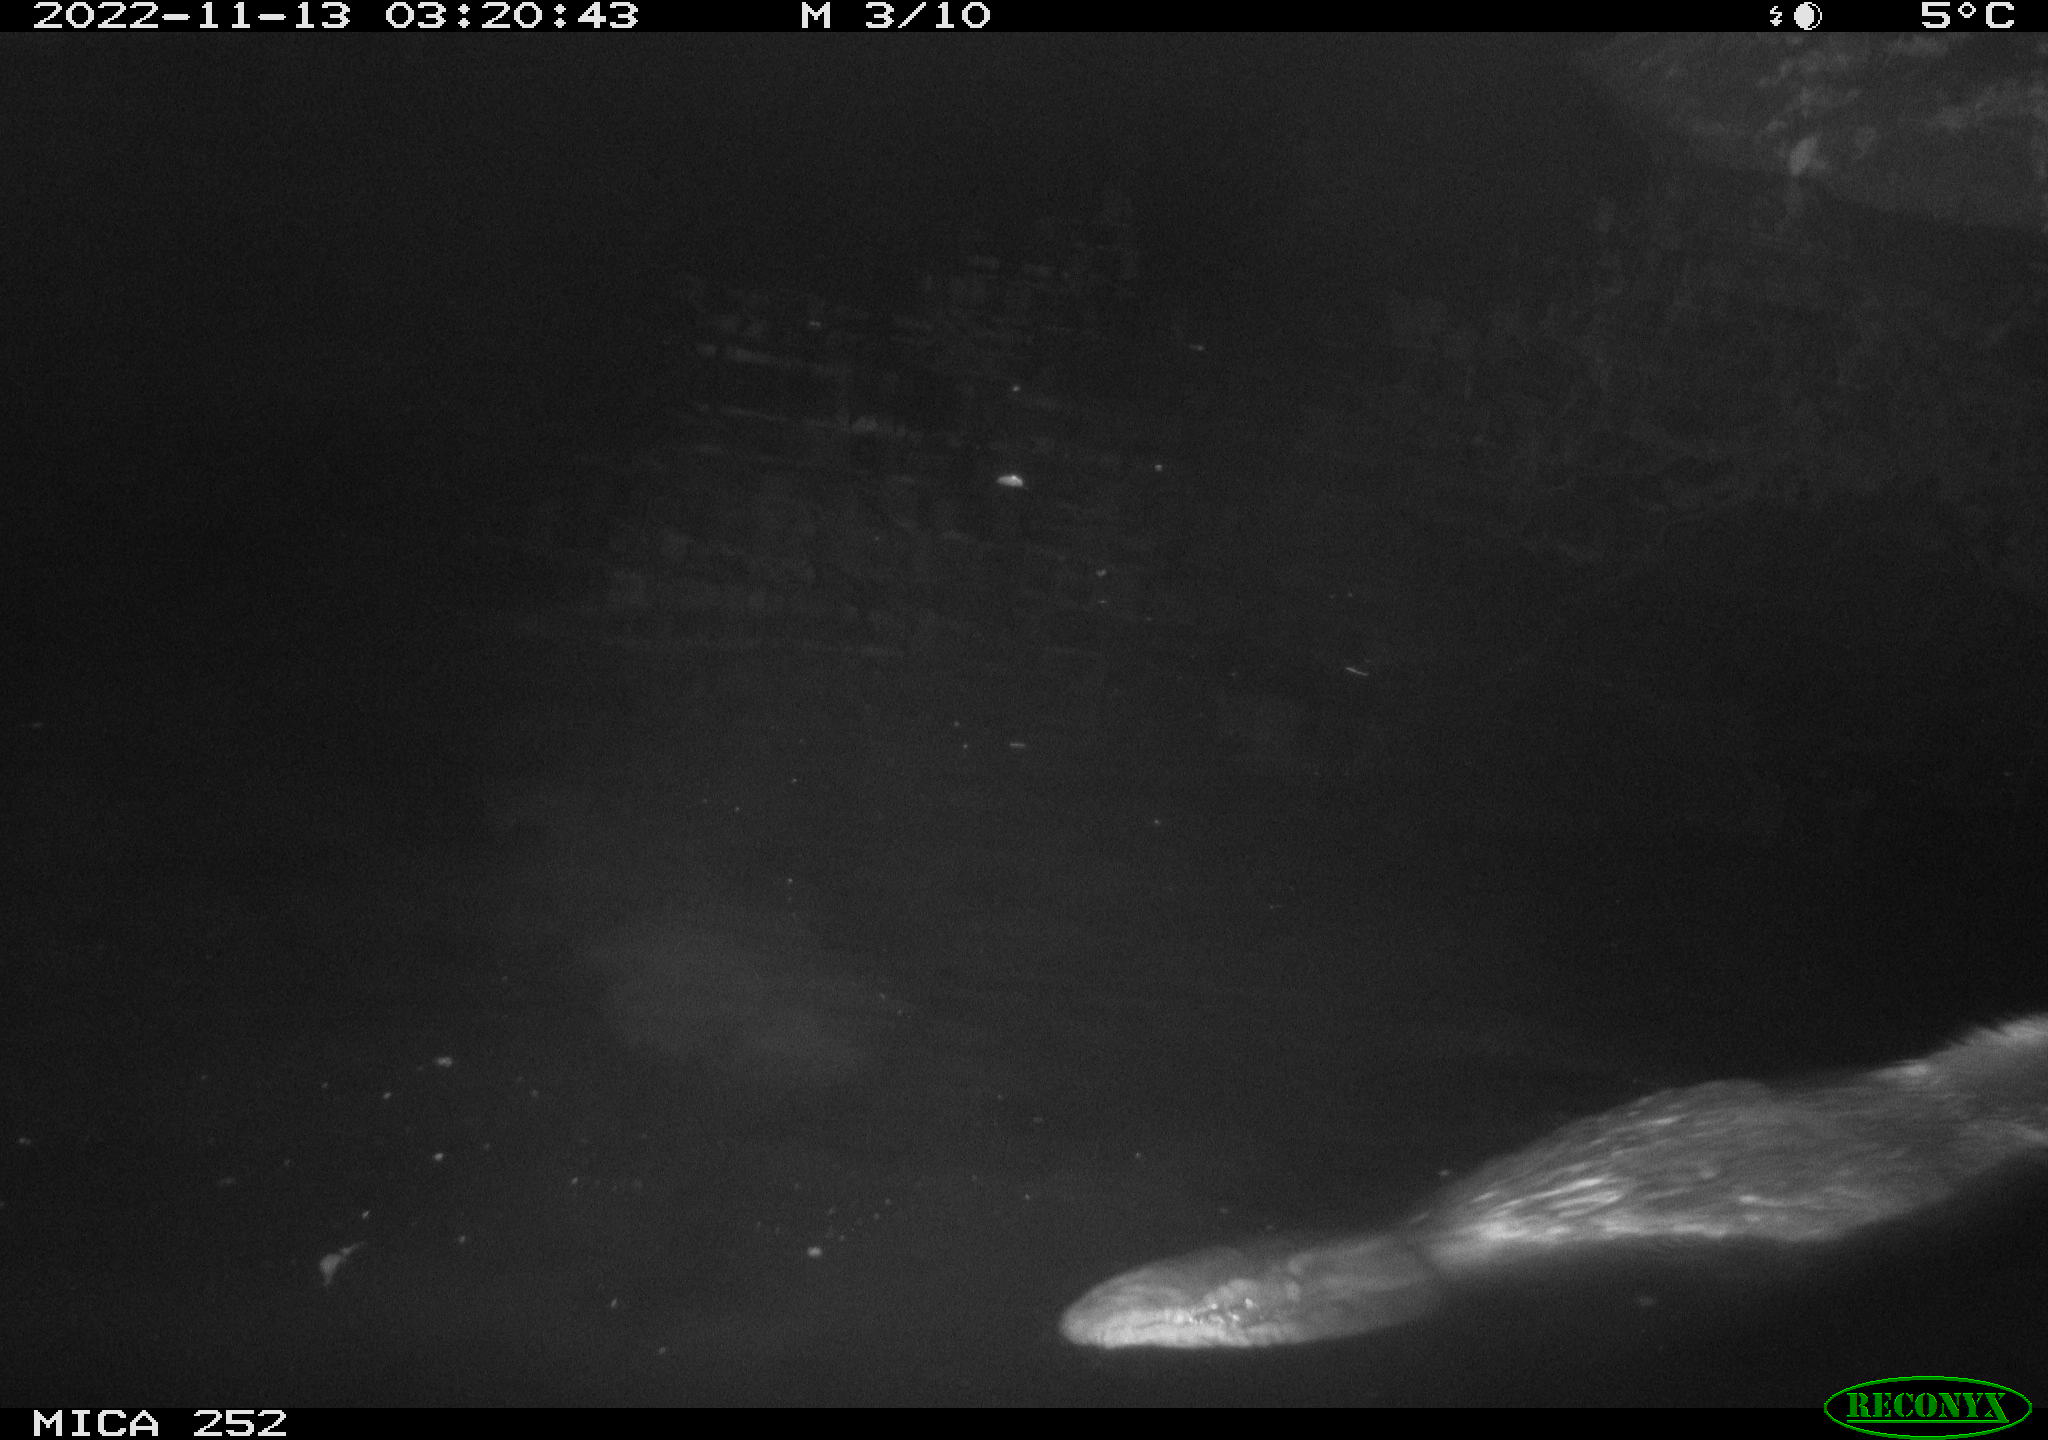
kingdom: Animalia
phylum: Chordata
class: Mammalia
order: Rodentia
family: Castoridae
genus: Castor
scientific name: Castor fiber
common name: Eurasian beaver
